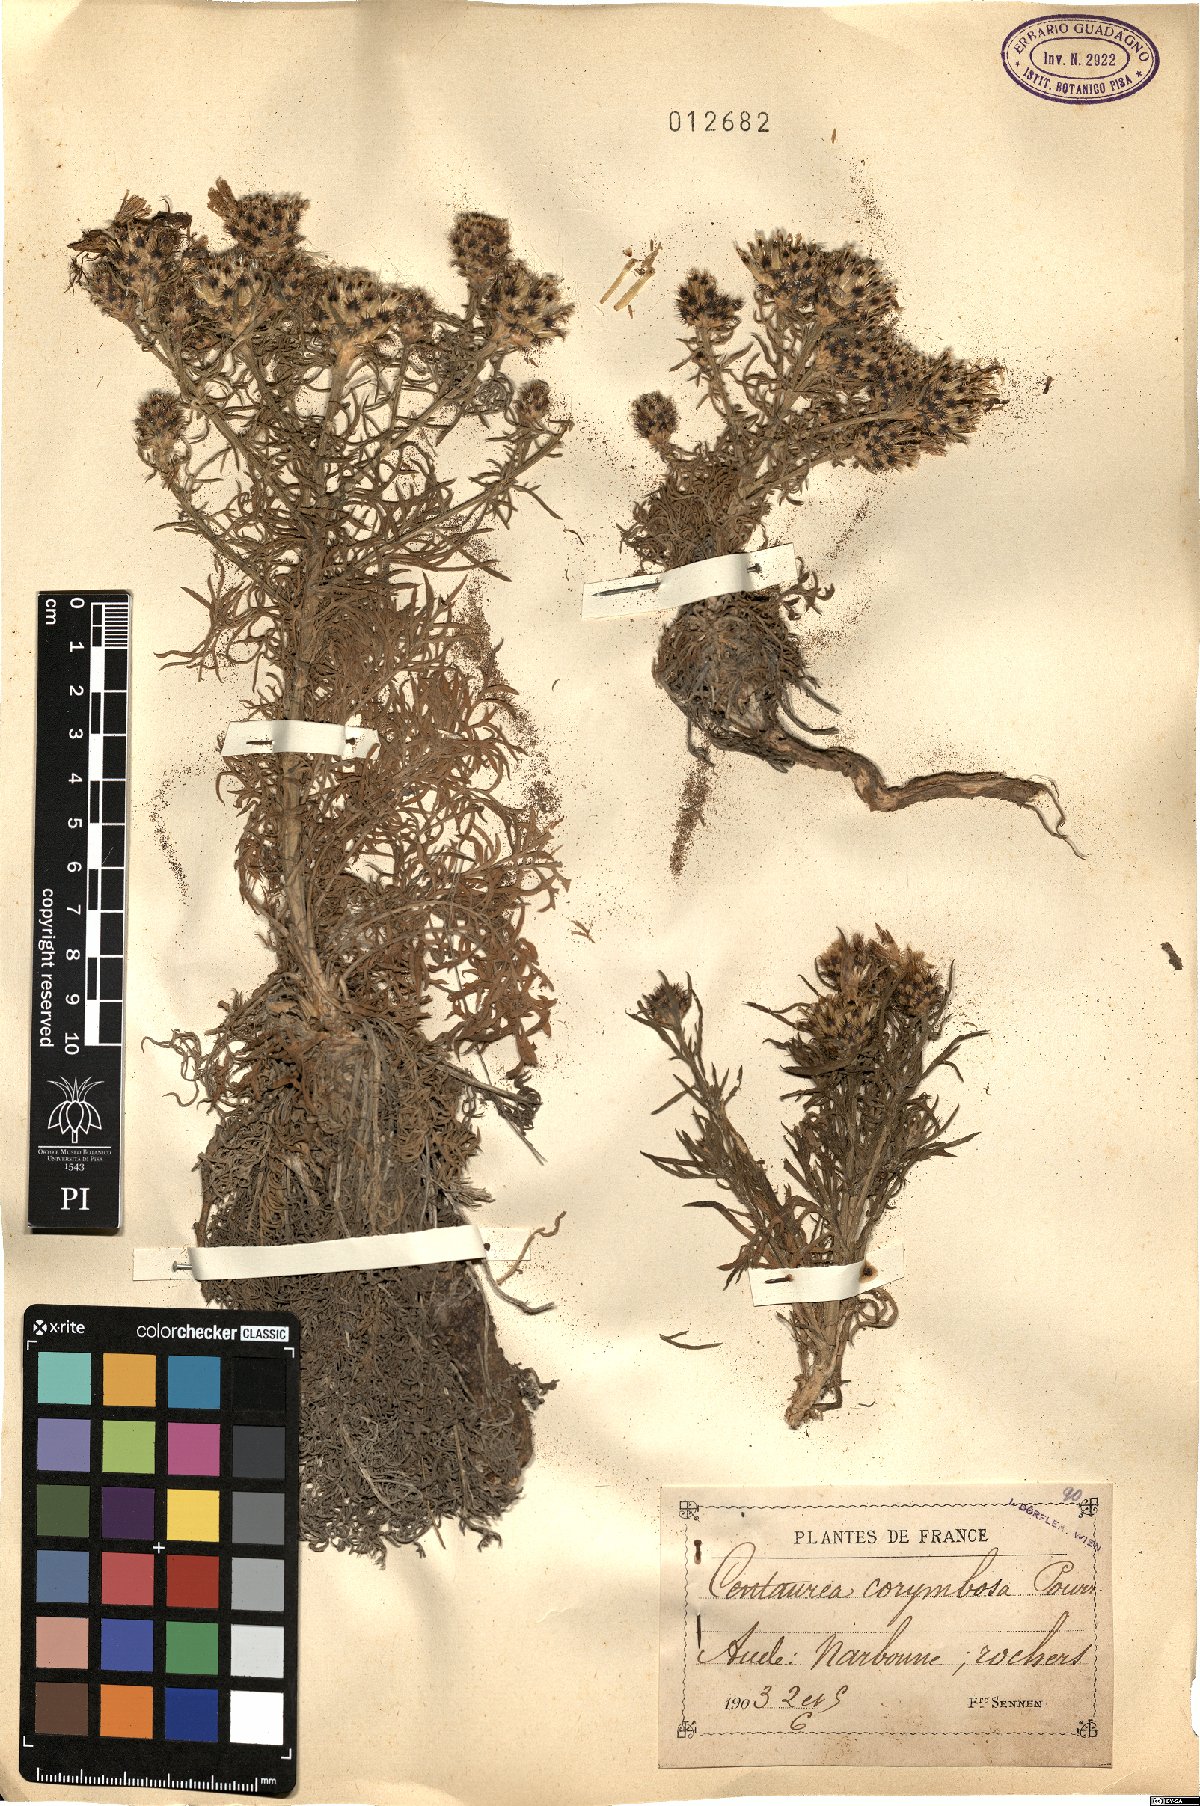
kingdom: Plantae
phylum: Tracheophyta
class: Magnoliopsida
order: Asterales
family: Asteraceae
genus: Centaurea
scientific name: Centaurea corymbosa
